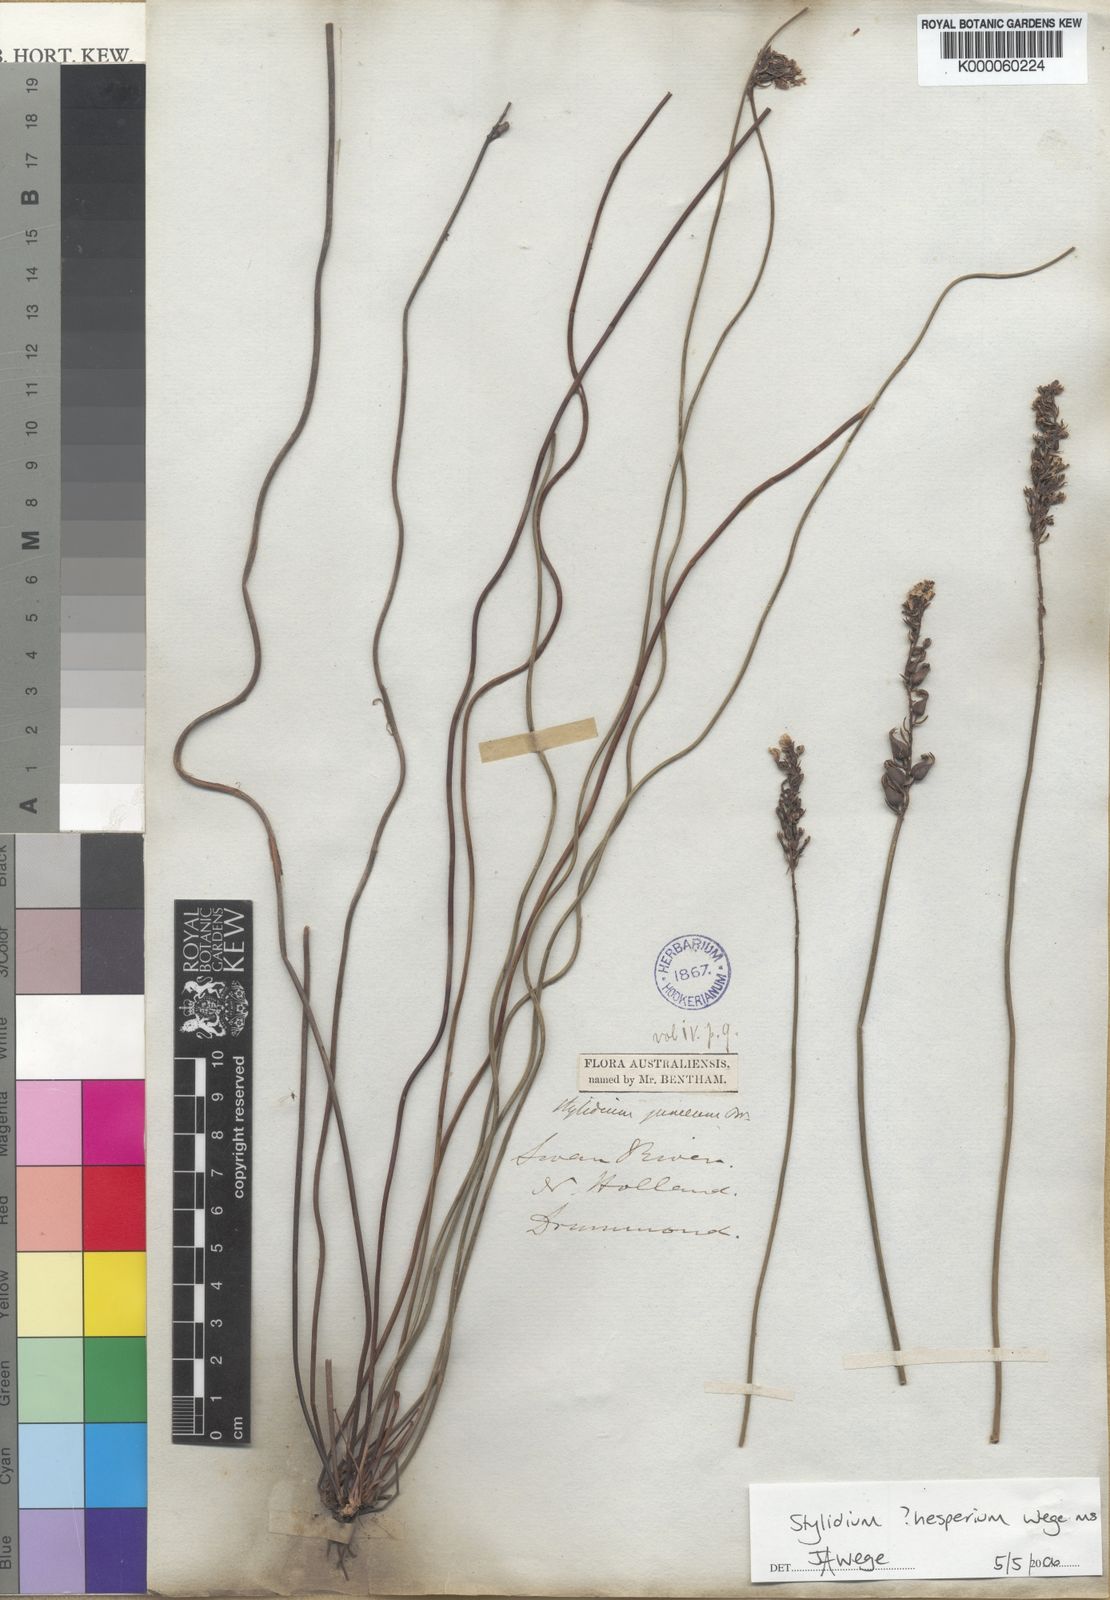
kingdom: Plantae
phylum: Tracheophyta
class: Magnoliopsida
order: Asterales
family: Stylidiaceae
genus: Stylidium
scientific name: Stylidium hesperium
